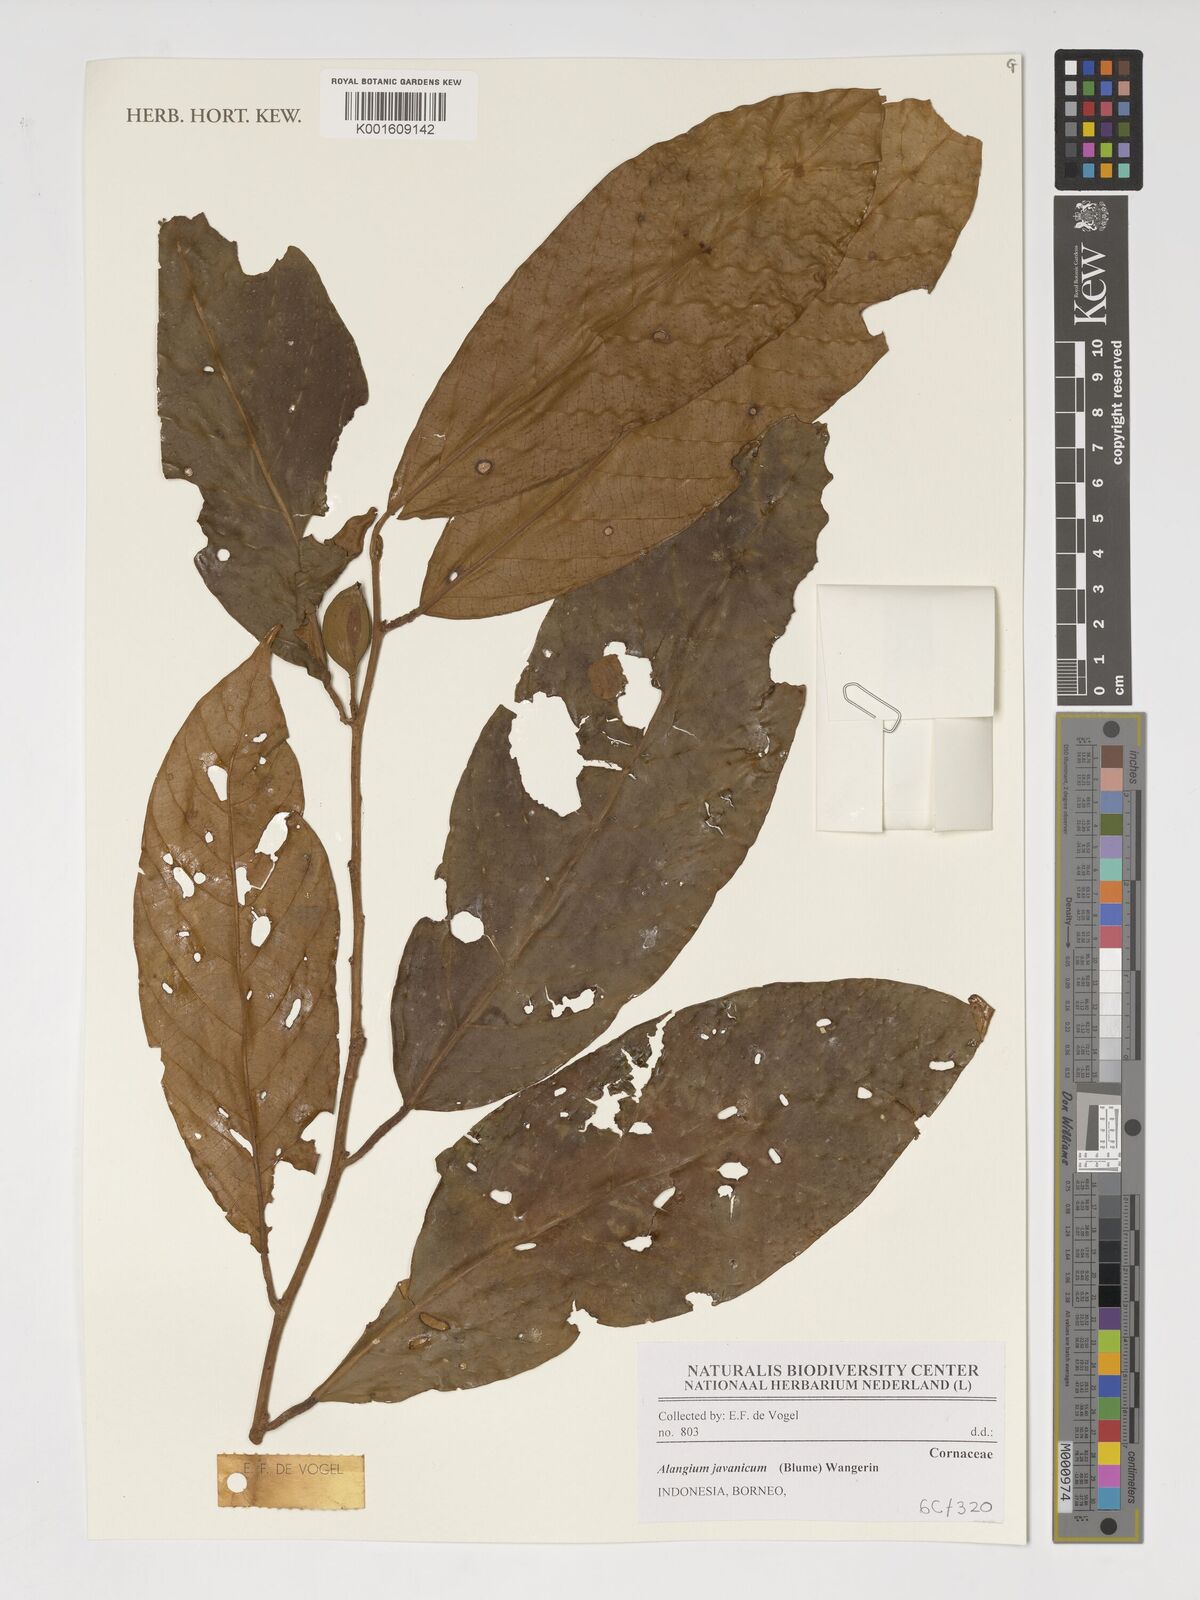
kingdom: Plantae
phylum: Tracheophyta
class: Magnoliopsida
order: Cornales
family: Cornaceae
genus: Alangium
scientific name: Alangium javanicum
